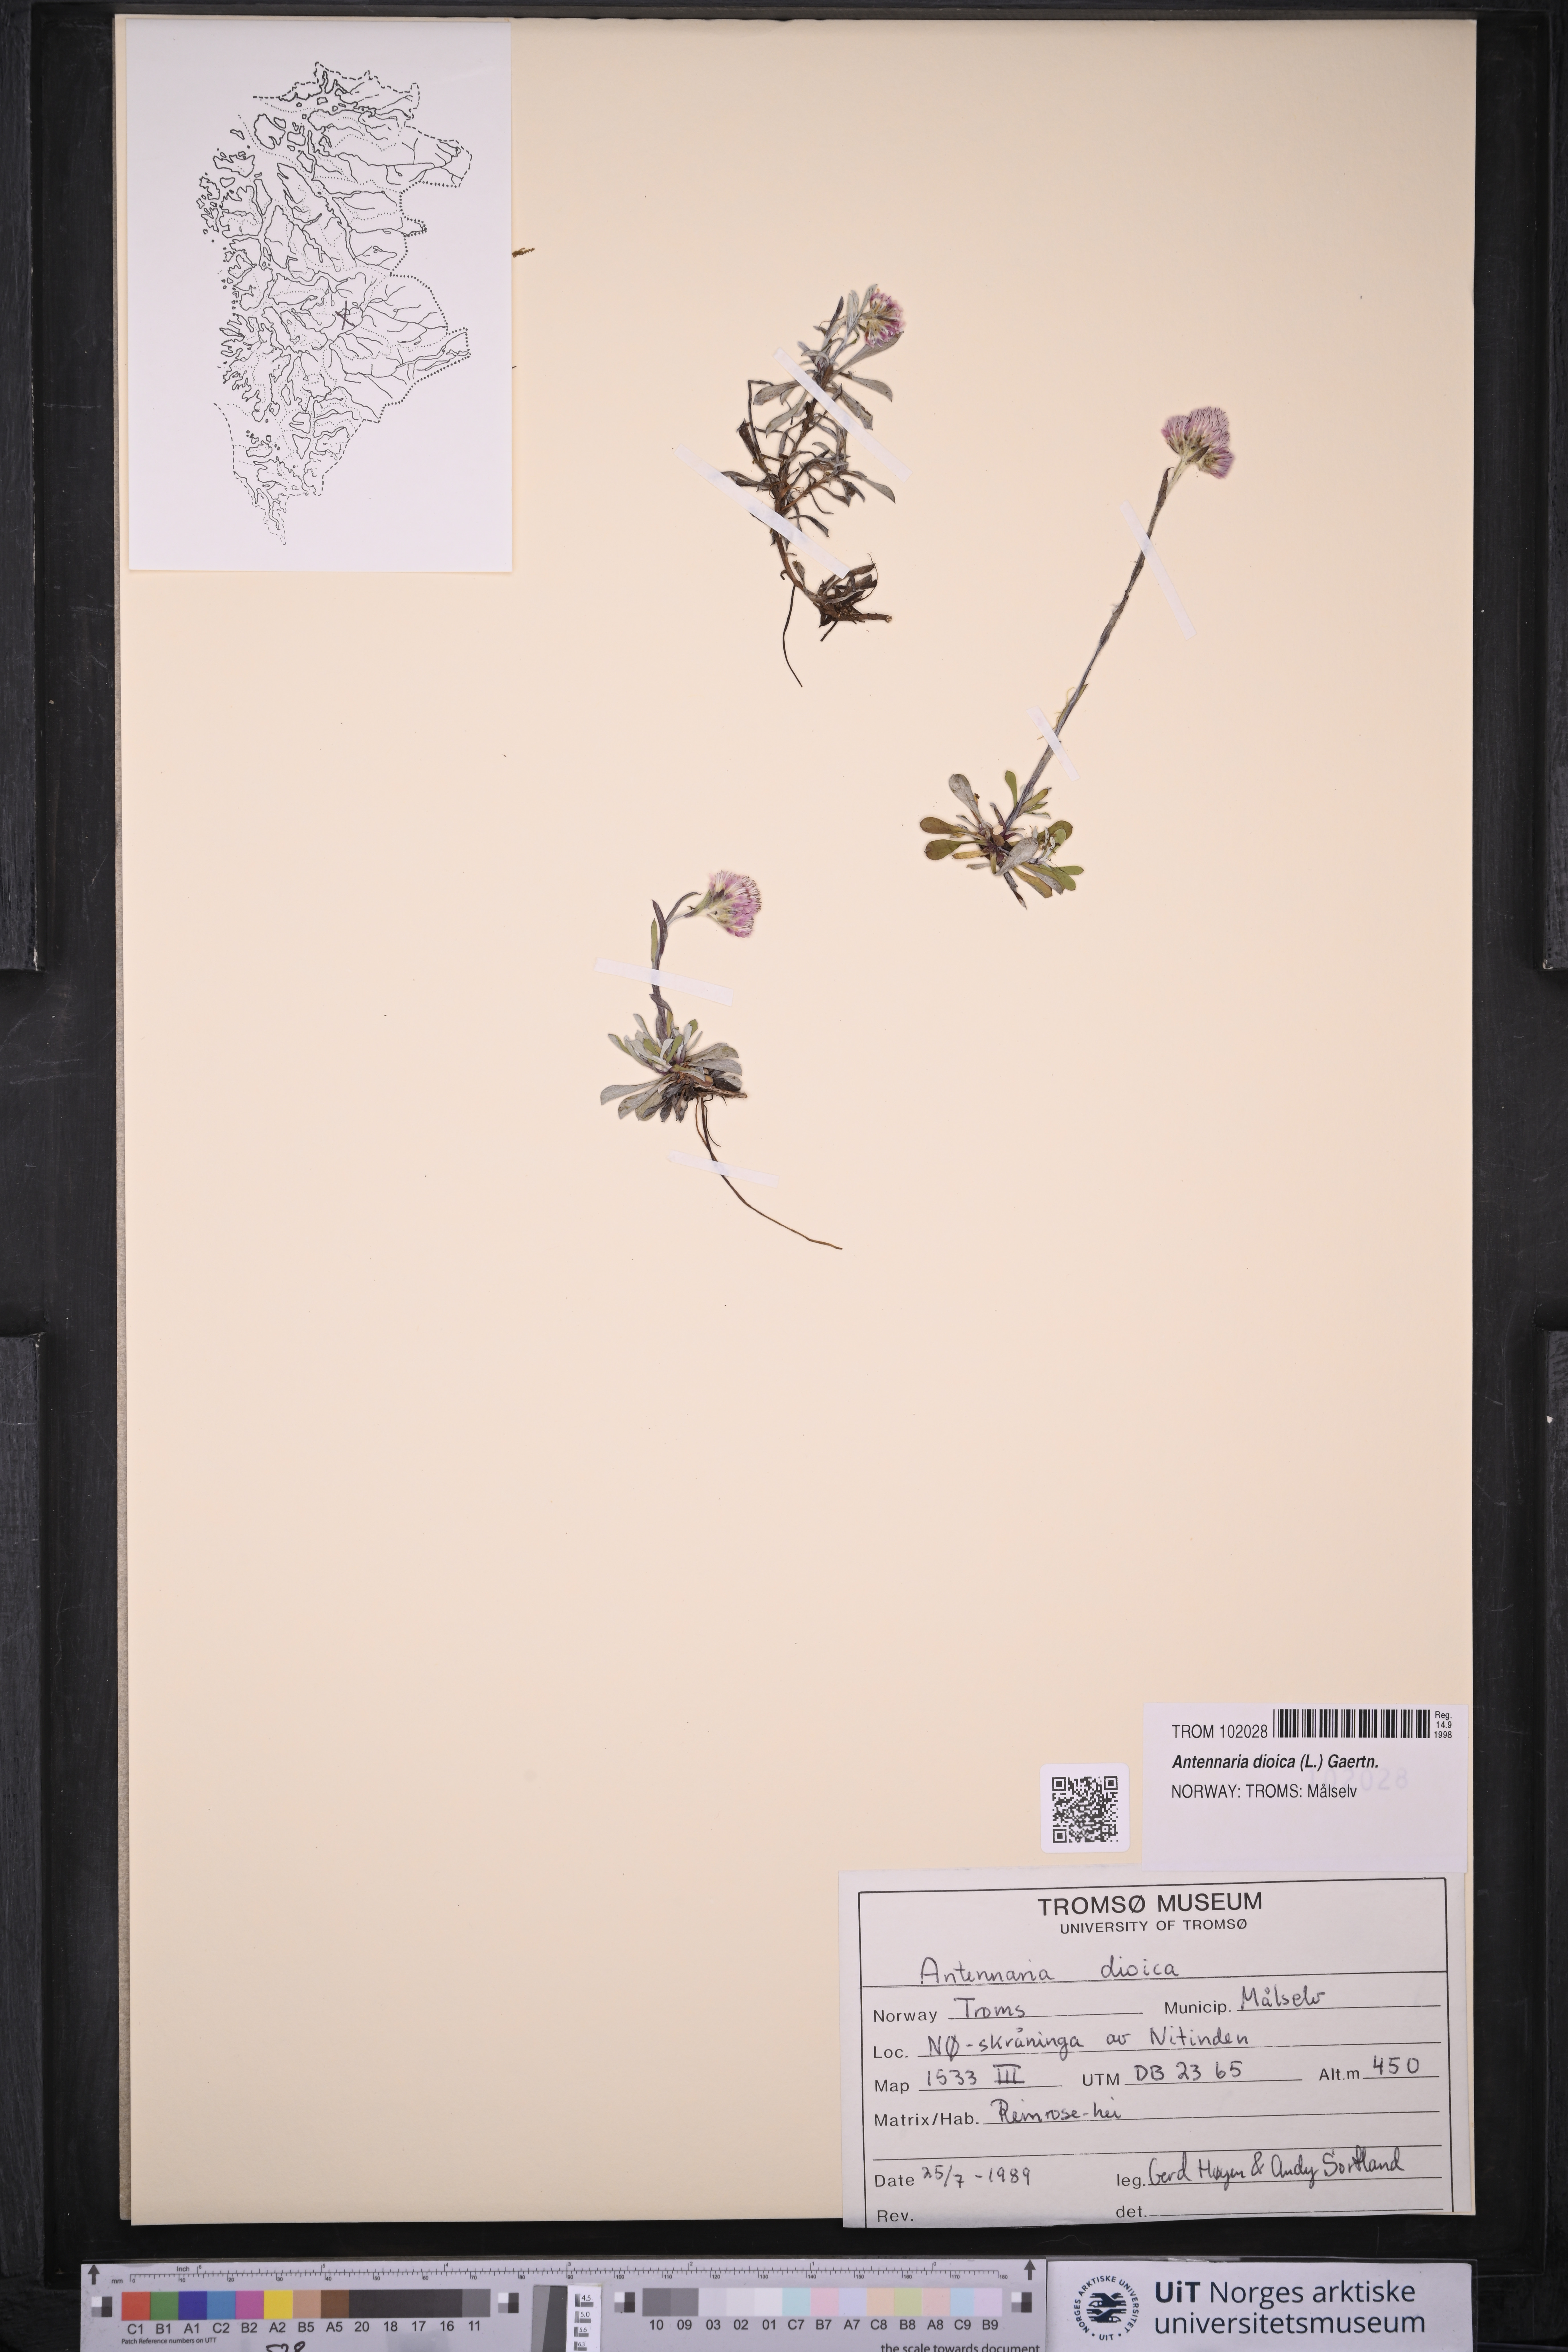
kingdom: Plantae
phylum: Tracheophyta
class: Magnoliopsida
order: Asterales
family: Asteraceae
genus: Antennaria
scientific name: Antennaria dioica
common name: Mountain everlasting
